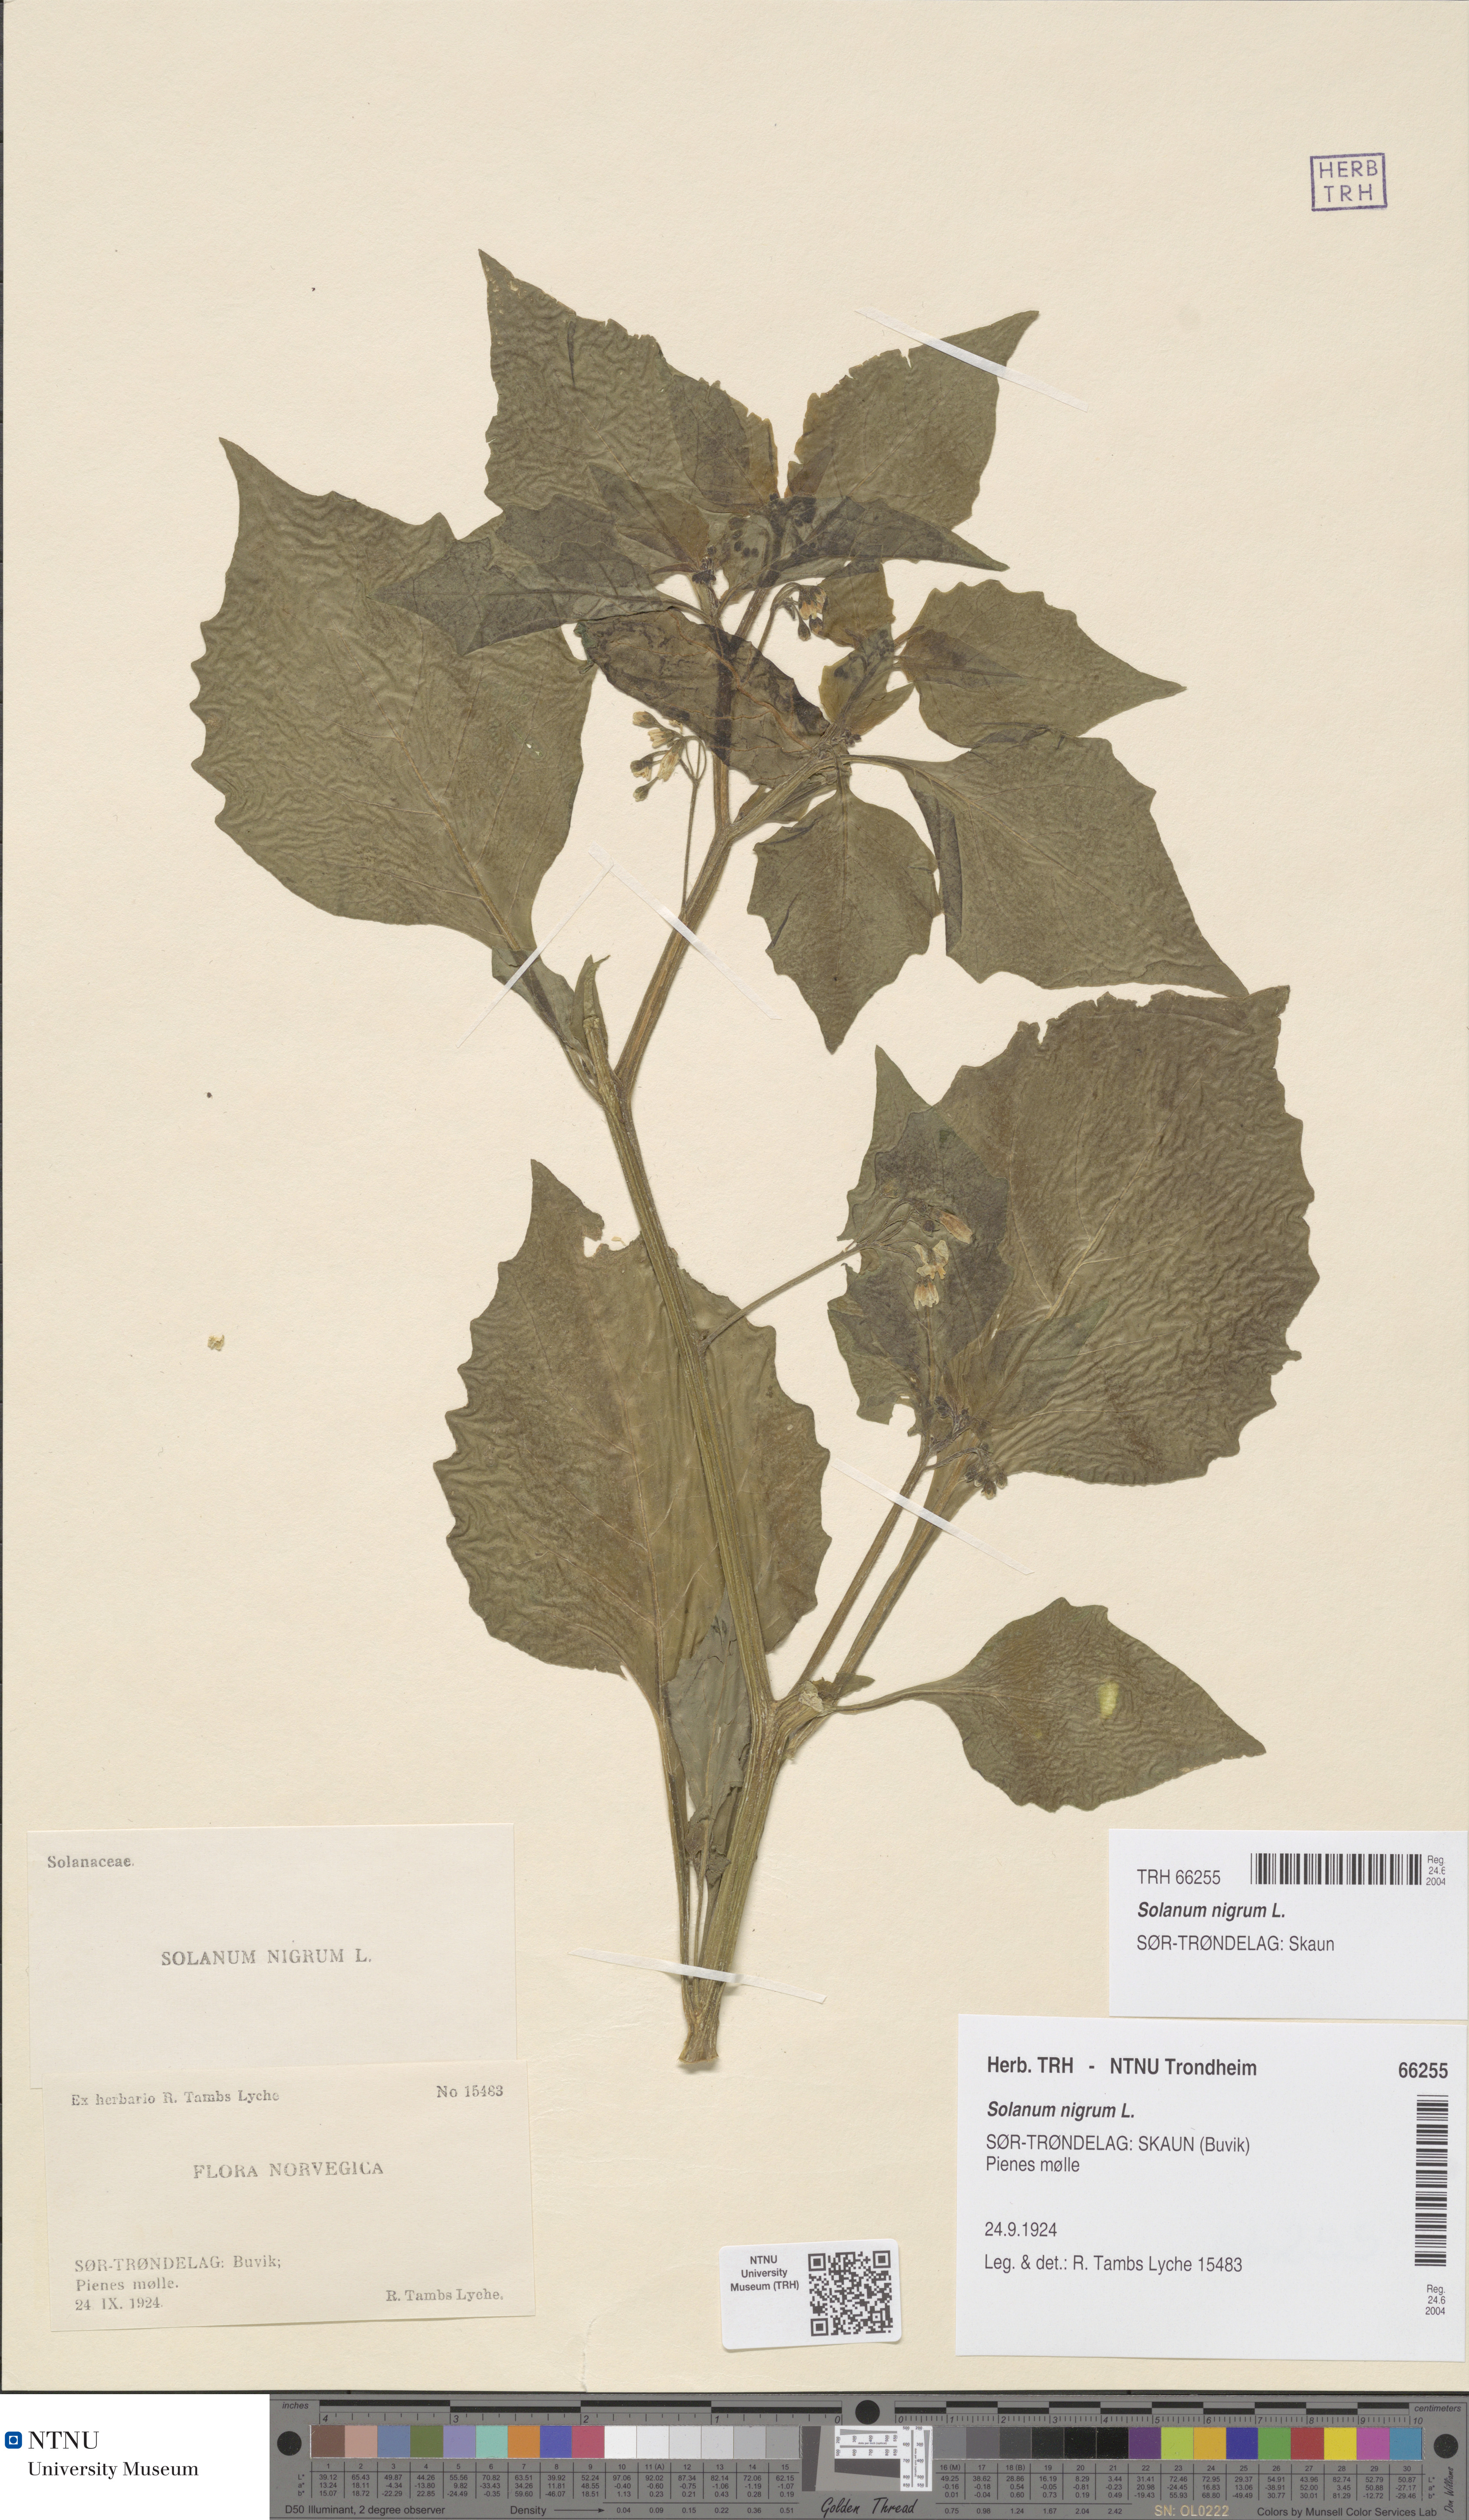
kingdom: Plantae
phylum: Tracheophyta
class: Magnoliopsida
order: Solanales
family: Solanaceae
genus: Solanum
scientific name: Solanum nigrum
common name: Black nightshade
